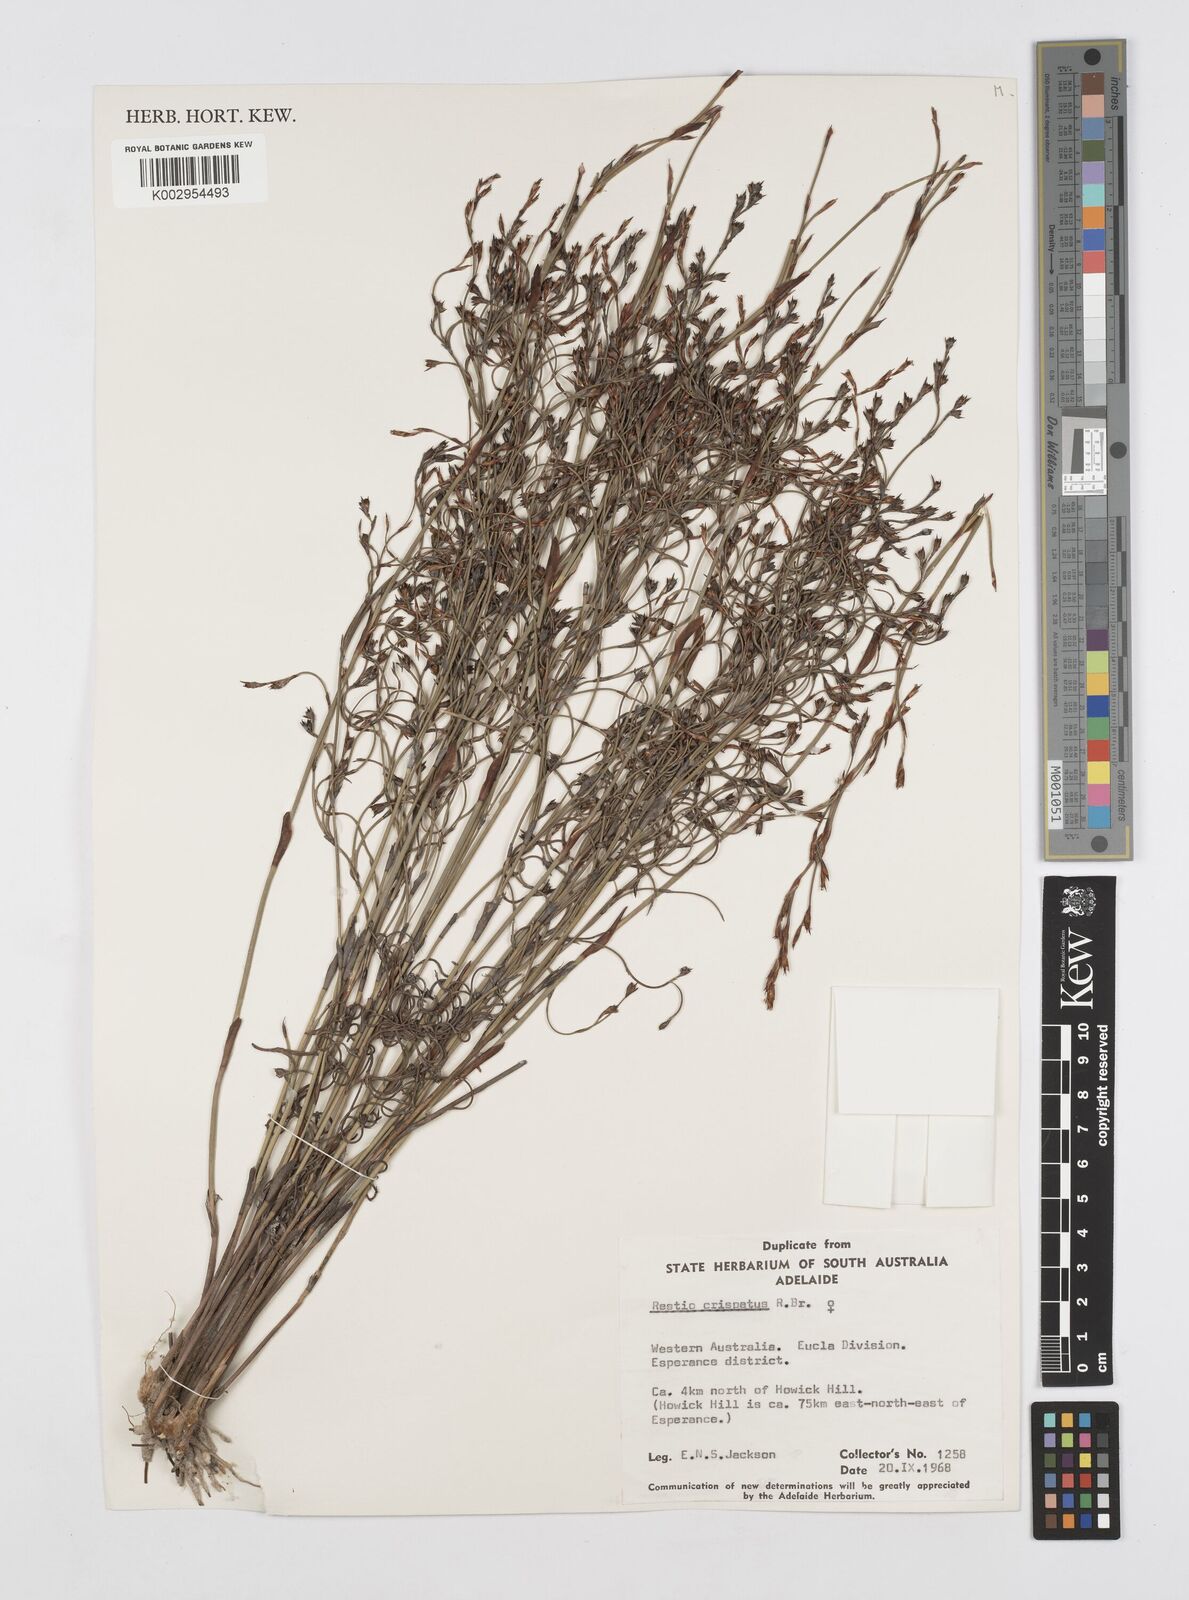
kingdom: Plantae
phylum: Tracheophyta
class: Liliopsida
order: Poales
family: Restionaceae
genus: Chordifex
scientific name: Chordifex crispatus
